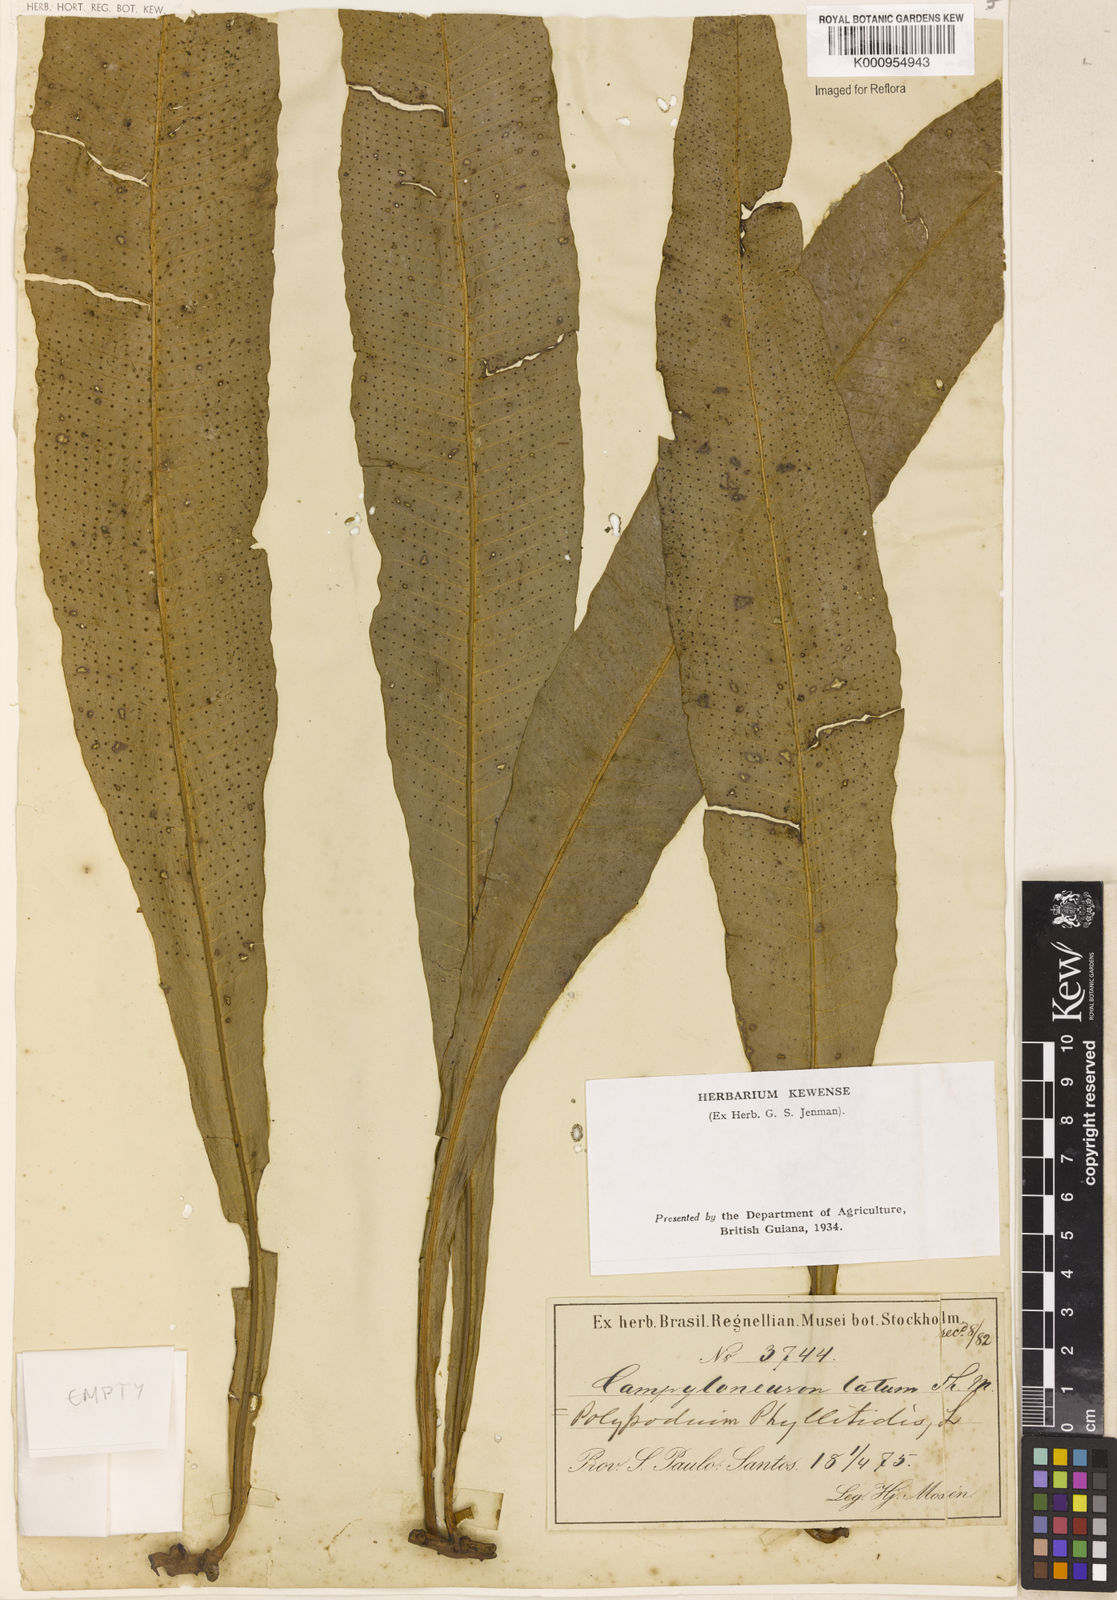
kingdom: Plantae
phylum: Tracheophyta
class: Polypodiopsida
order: Polypodiales
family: Polypodiaceae
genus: Campyloneurum
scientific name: Campyloneurum repens
